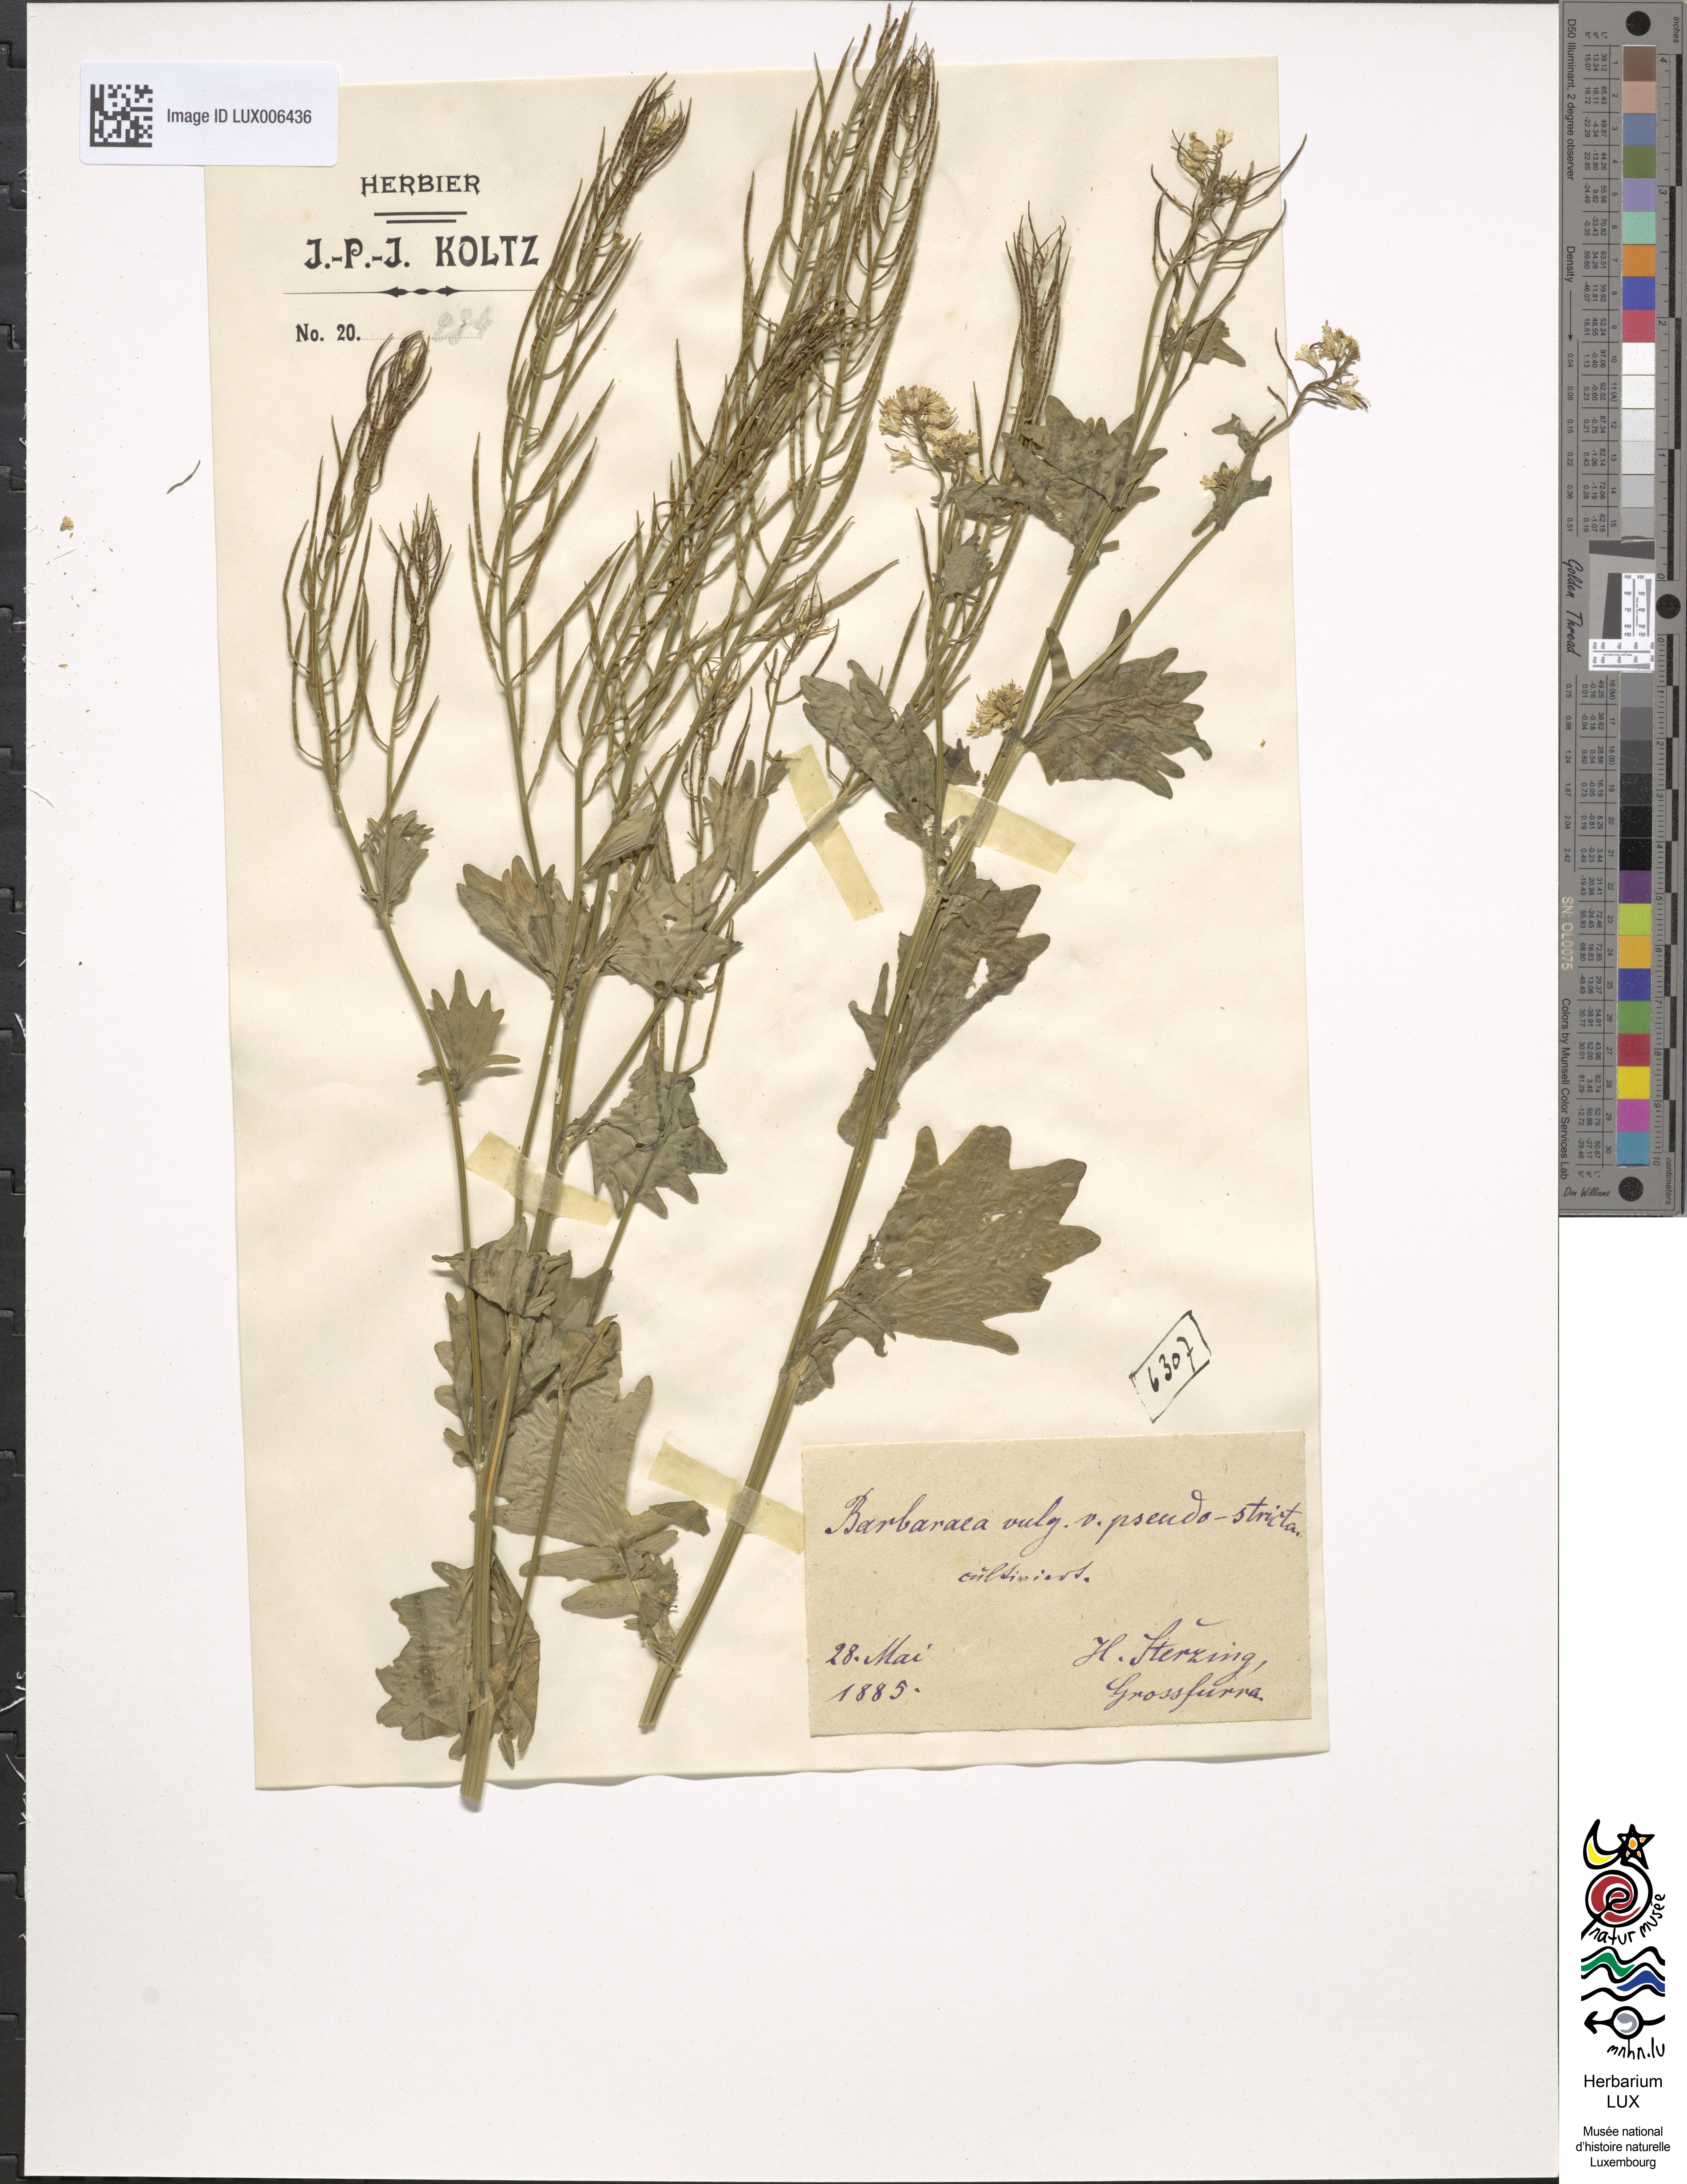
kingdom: Plantae
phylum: Tracheophyta
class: Magnoliopsida
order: Brassicales
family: Brassicaceae
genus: Barbarea
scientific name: Barbarea vulgaris
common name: Cressy-greens
